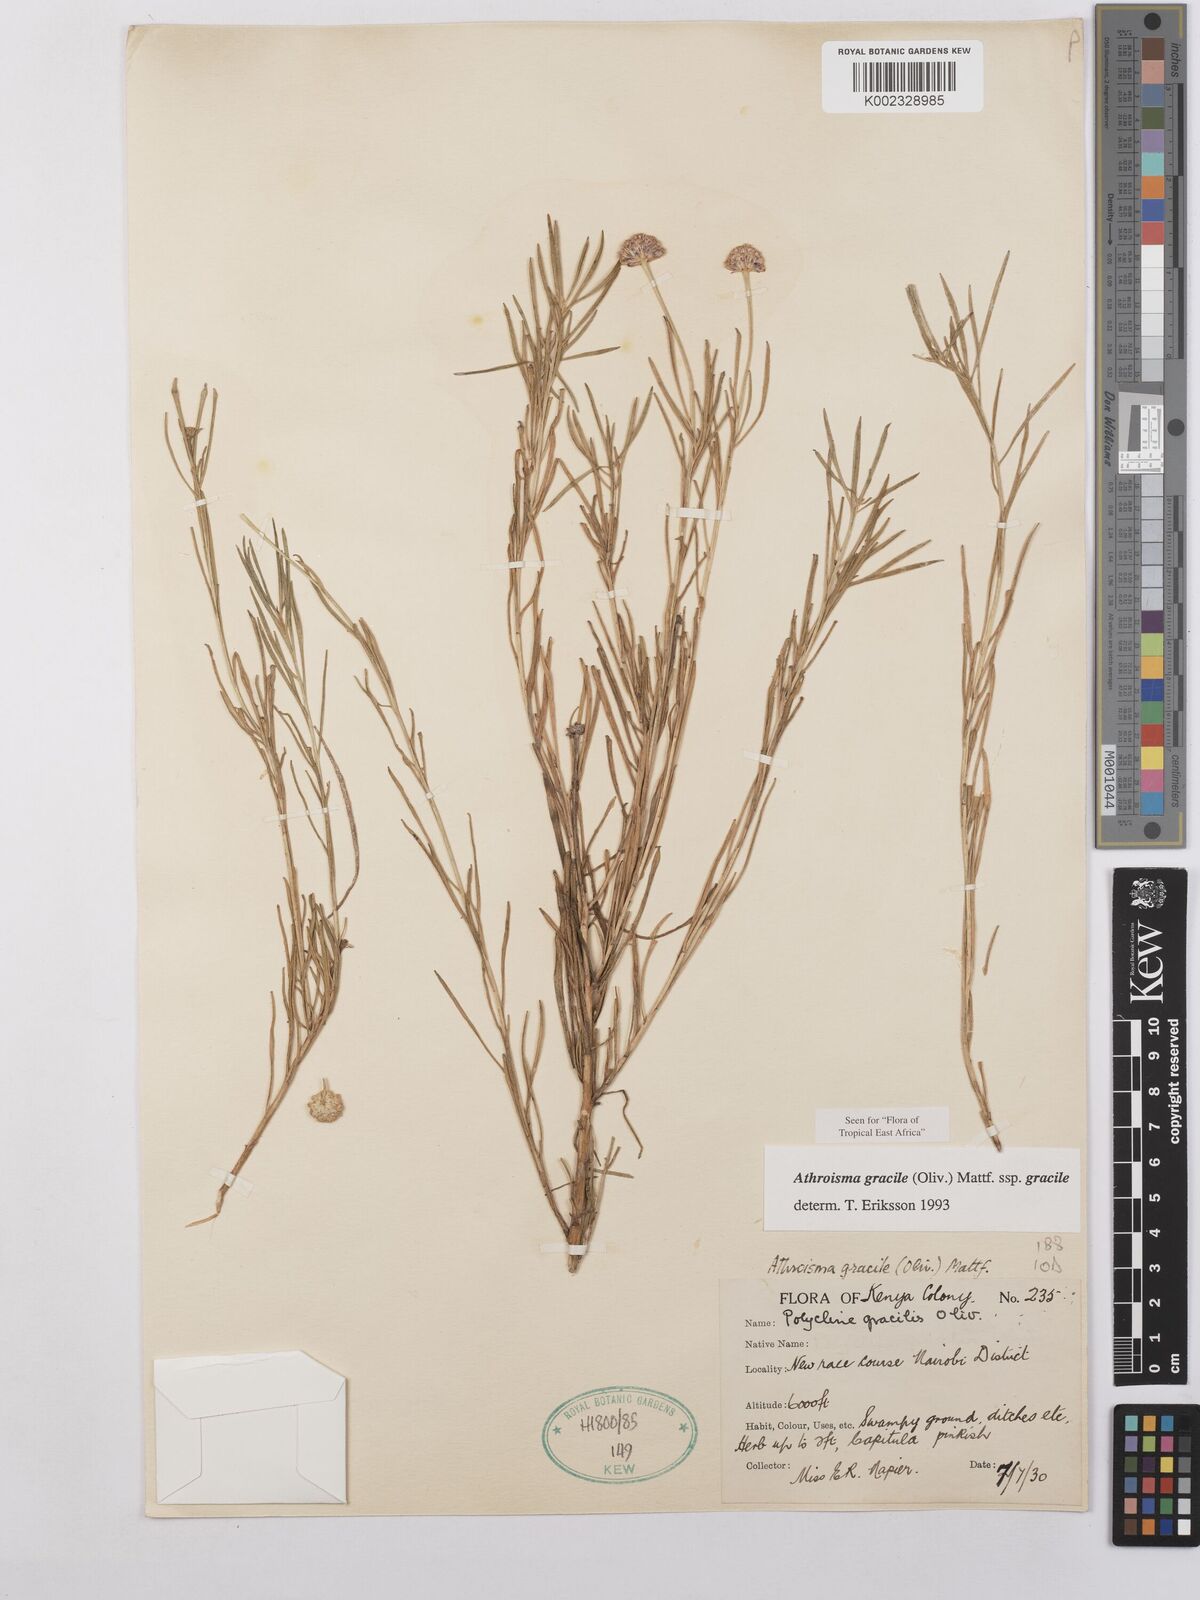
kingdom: Plantae
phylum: Tracheophyta
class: Magnoliopsida
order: Asterales
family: Asteraceae
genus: Athroisma
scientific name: Athroisma gracile
